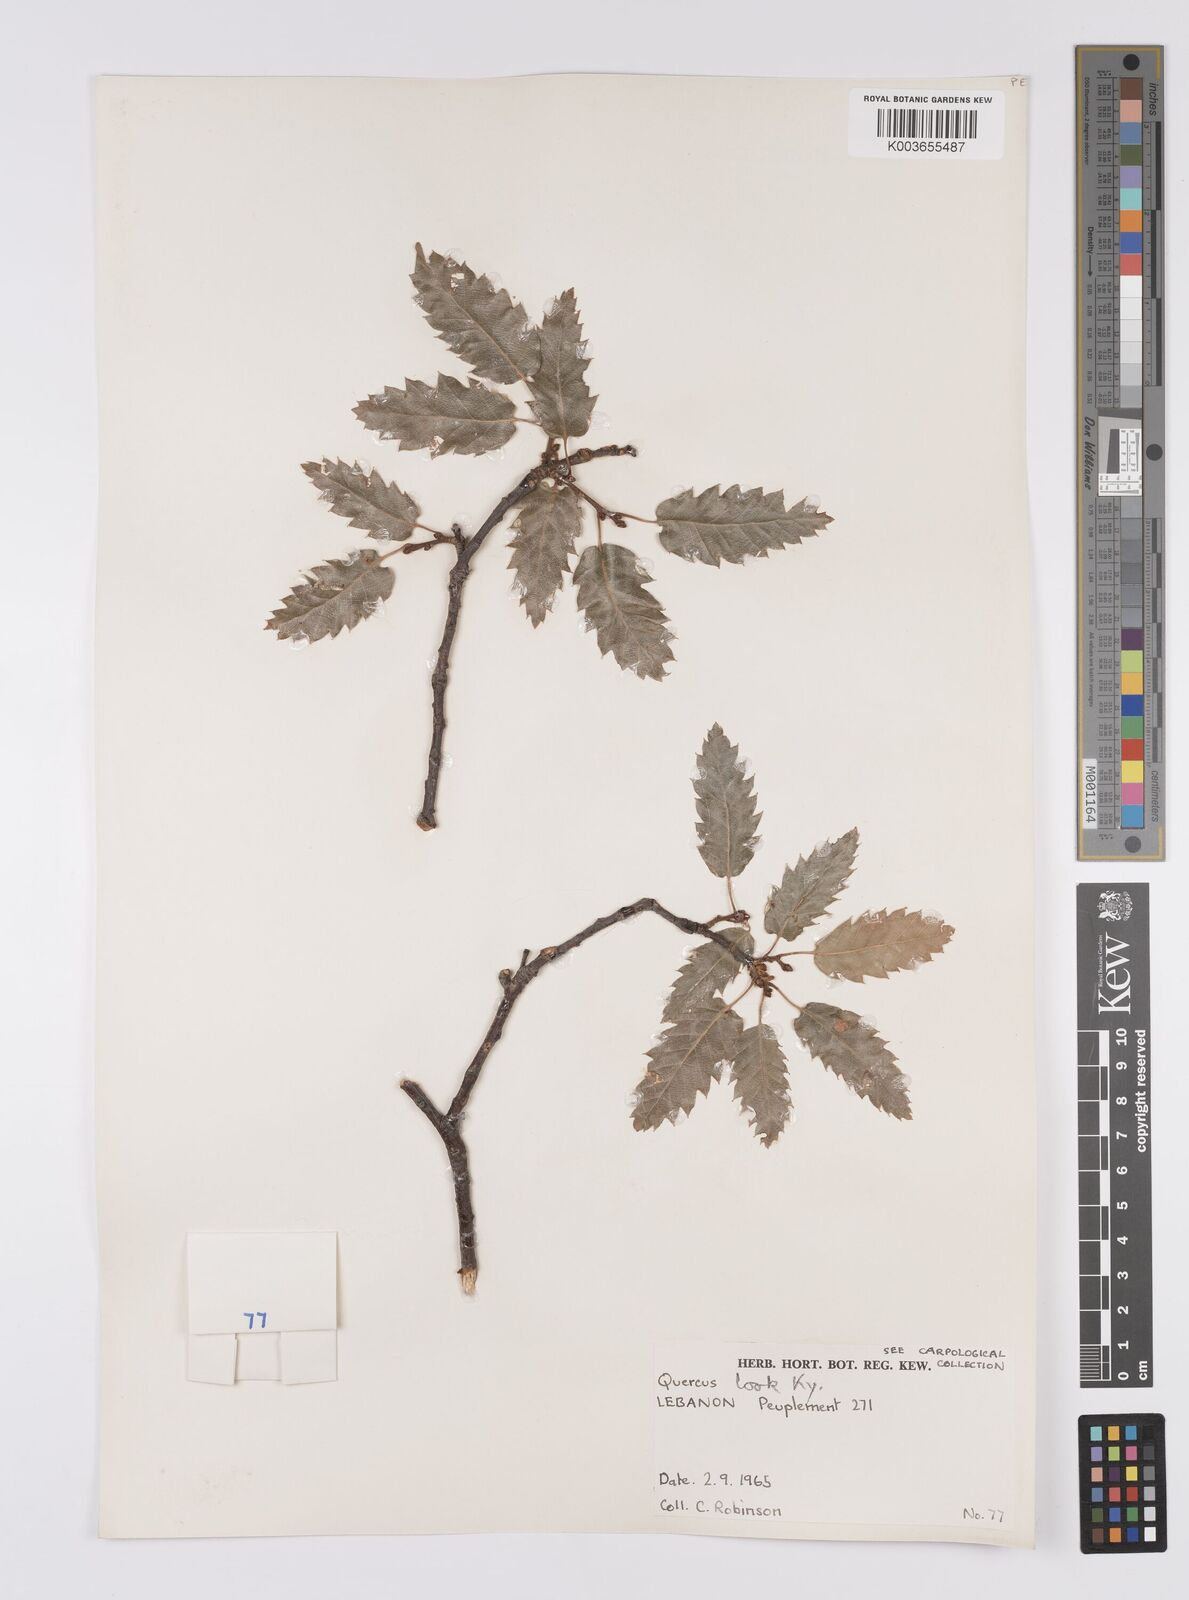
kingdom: Plantae
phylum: Tracheophyta
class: Magnoliopsida
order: Fagales
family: Fagaceae
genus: Quercus
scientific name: Quercus look
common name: Look oak
